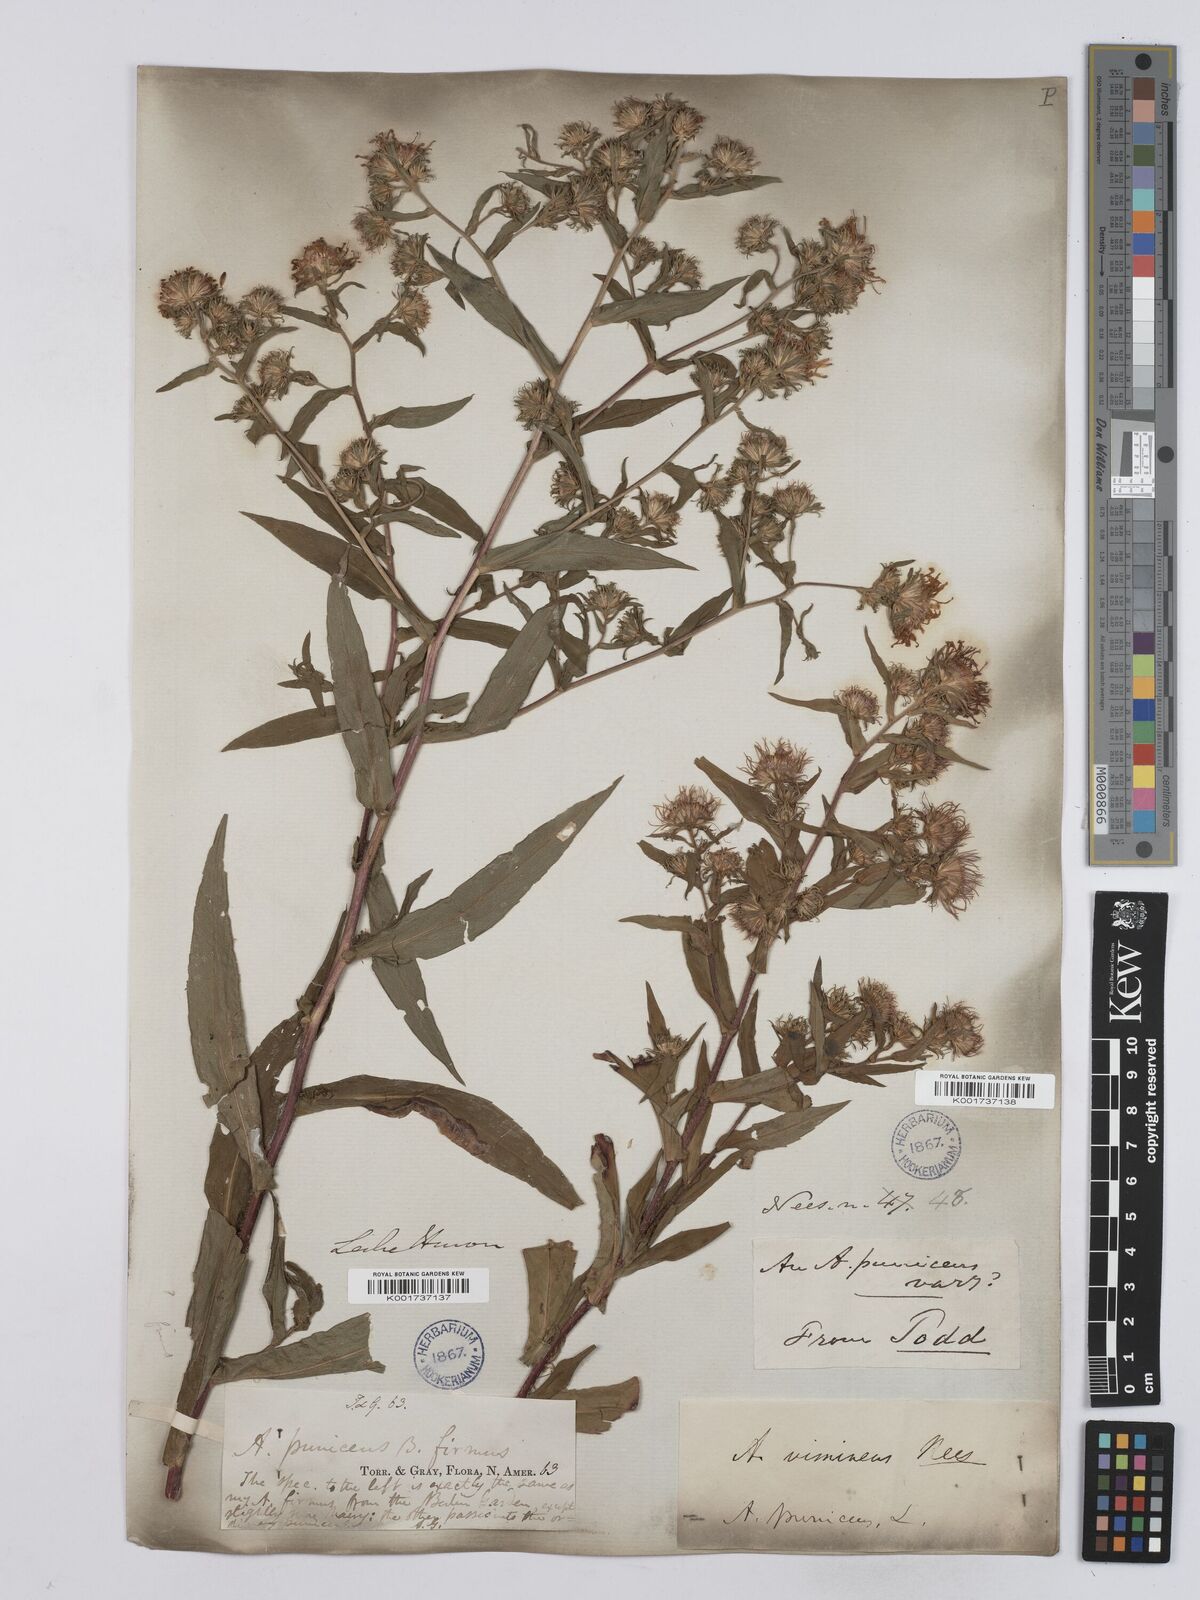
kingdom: Plantae
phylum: Tracheophyta
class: Magnoliopsida
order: Asterales
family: Asteraceae
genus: Symphyotrichum
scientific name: Symphyotrichum puniceum
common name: Bog aster
